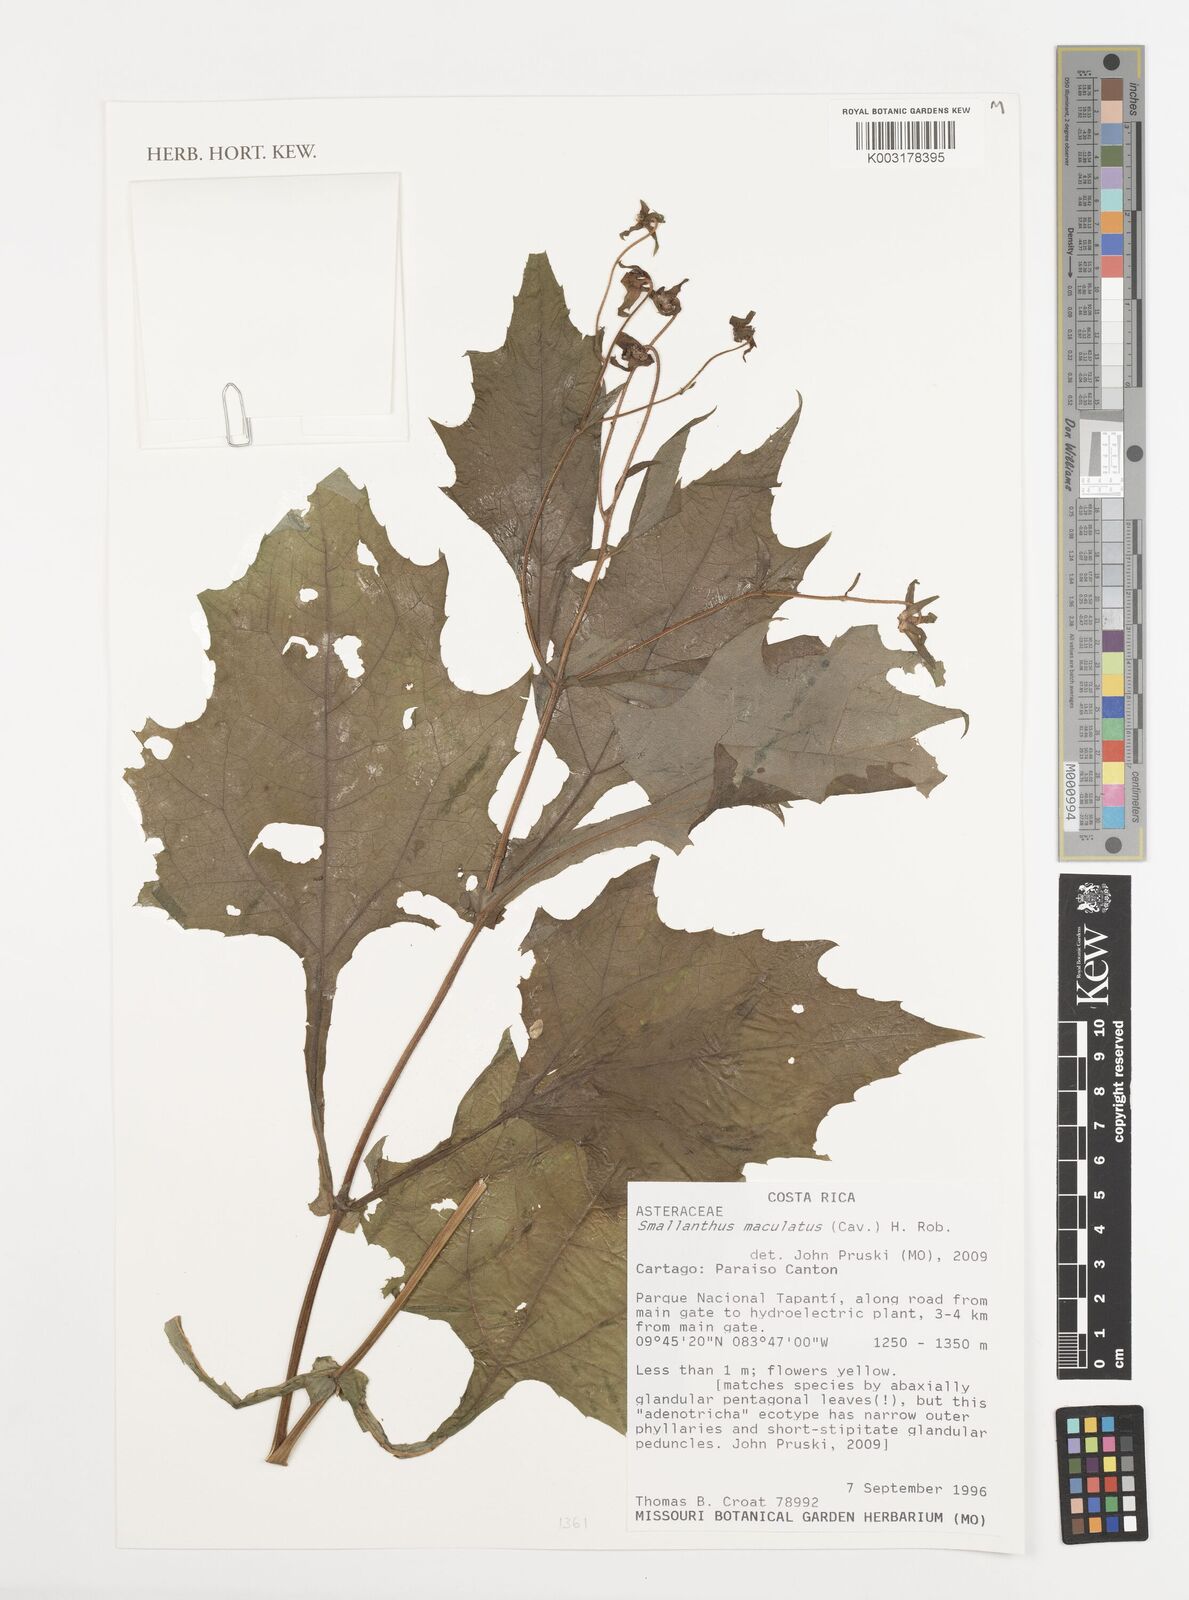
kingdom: Plantae
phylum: Tracheophyta
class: Magnoliopsida
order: Asterales
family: Asteraceae
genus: Smallanthus
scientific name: Smallanthus maculatus
